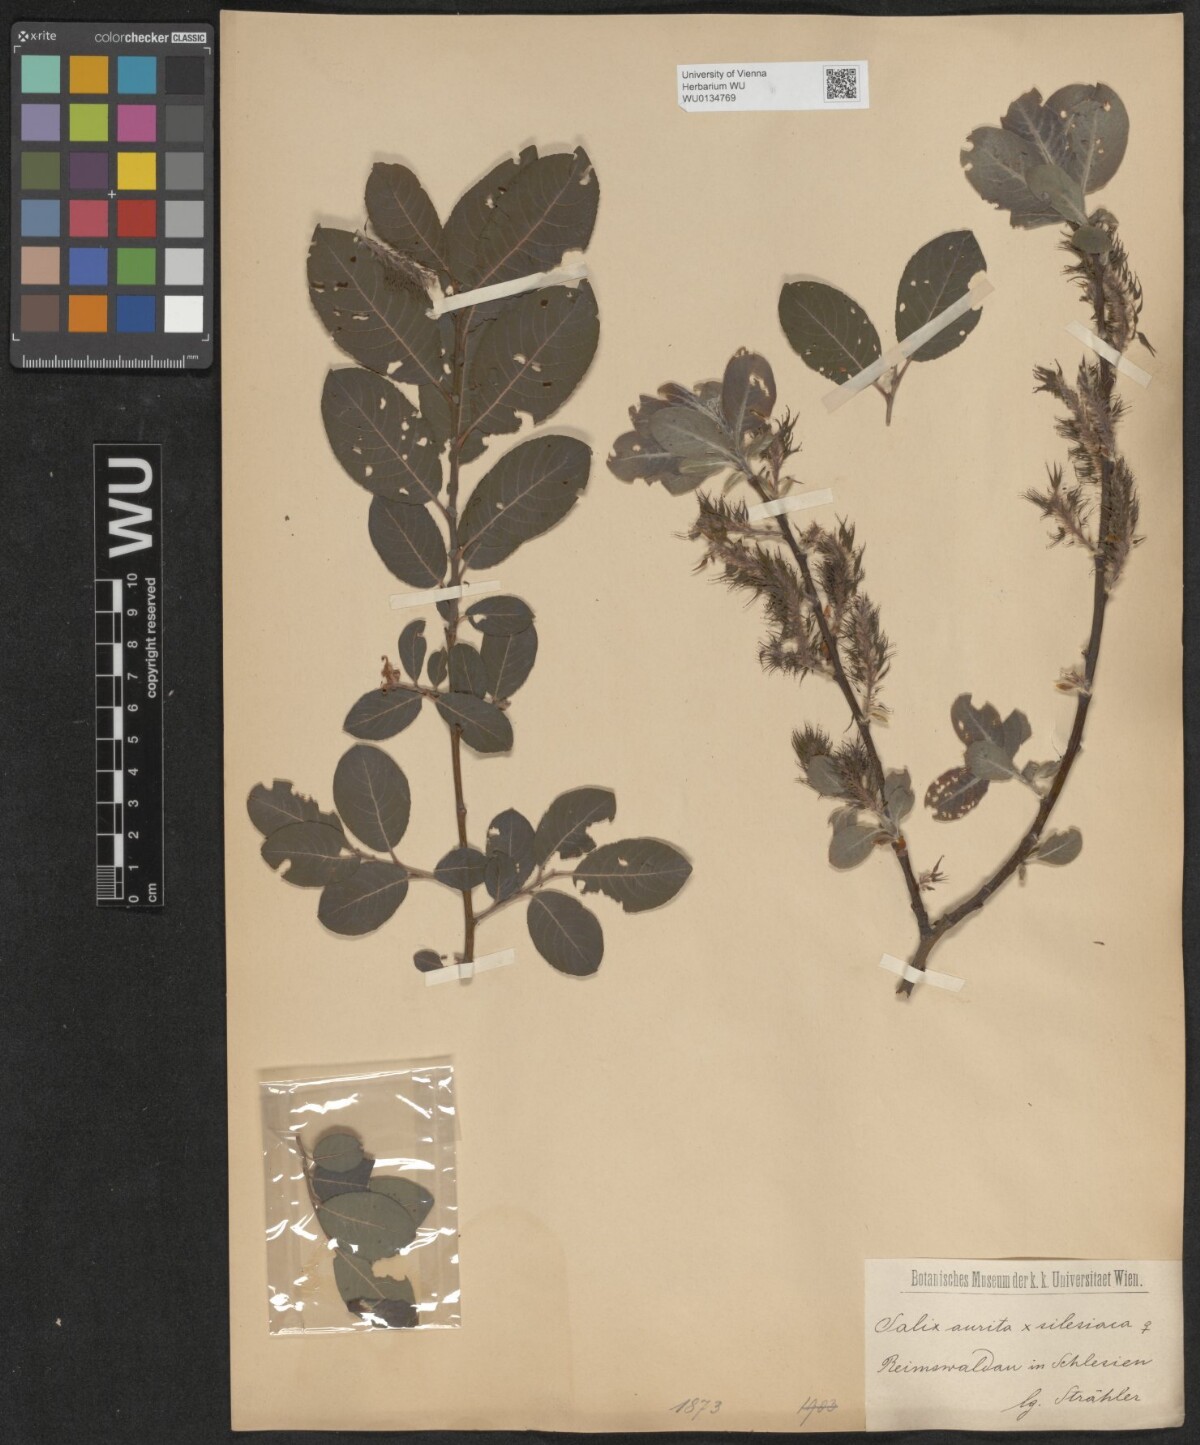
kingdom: Plantae
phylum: Tracheophyta
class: Magnoliopsida
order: Malpighiales
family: Salicaceae
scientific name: Salicaceae
